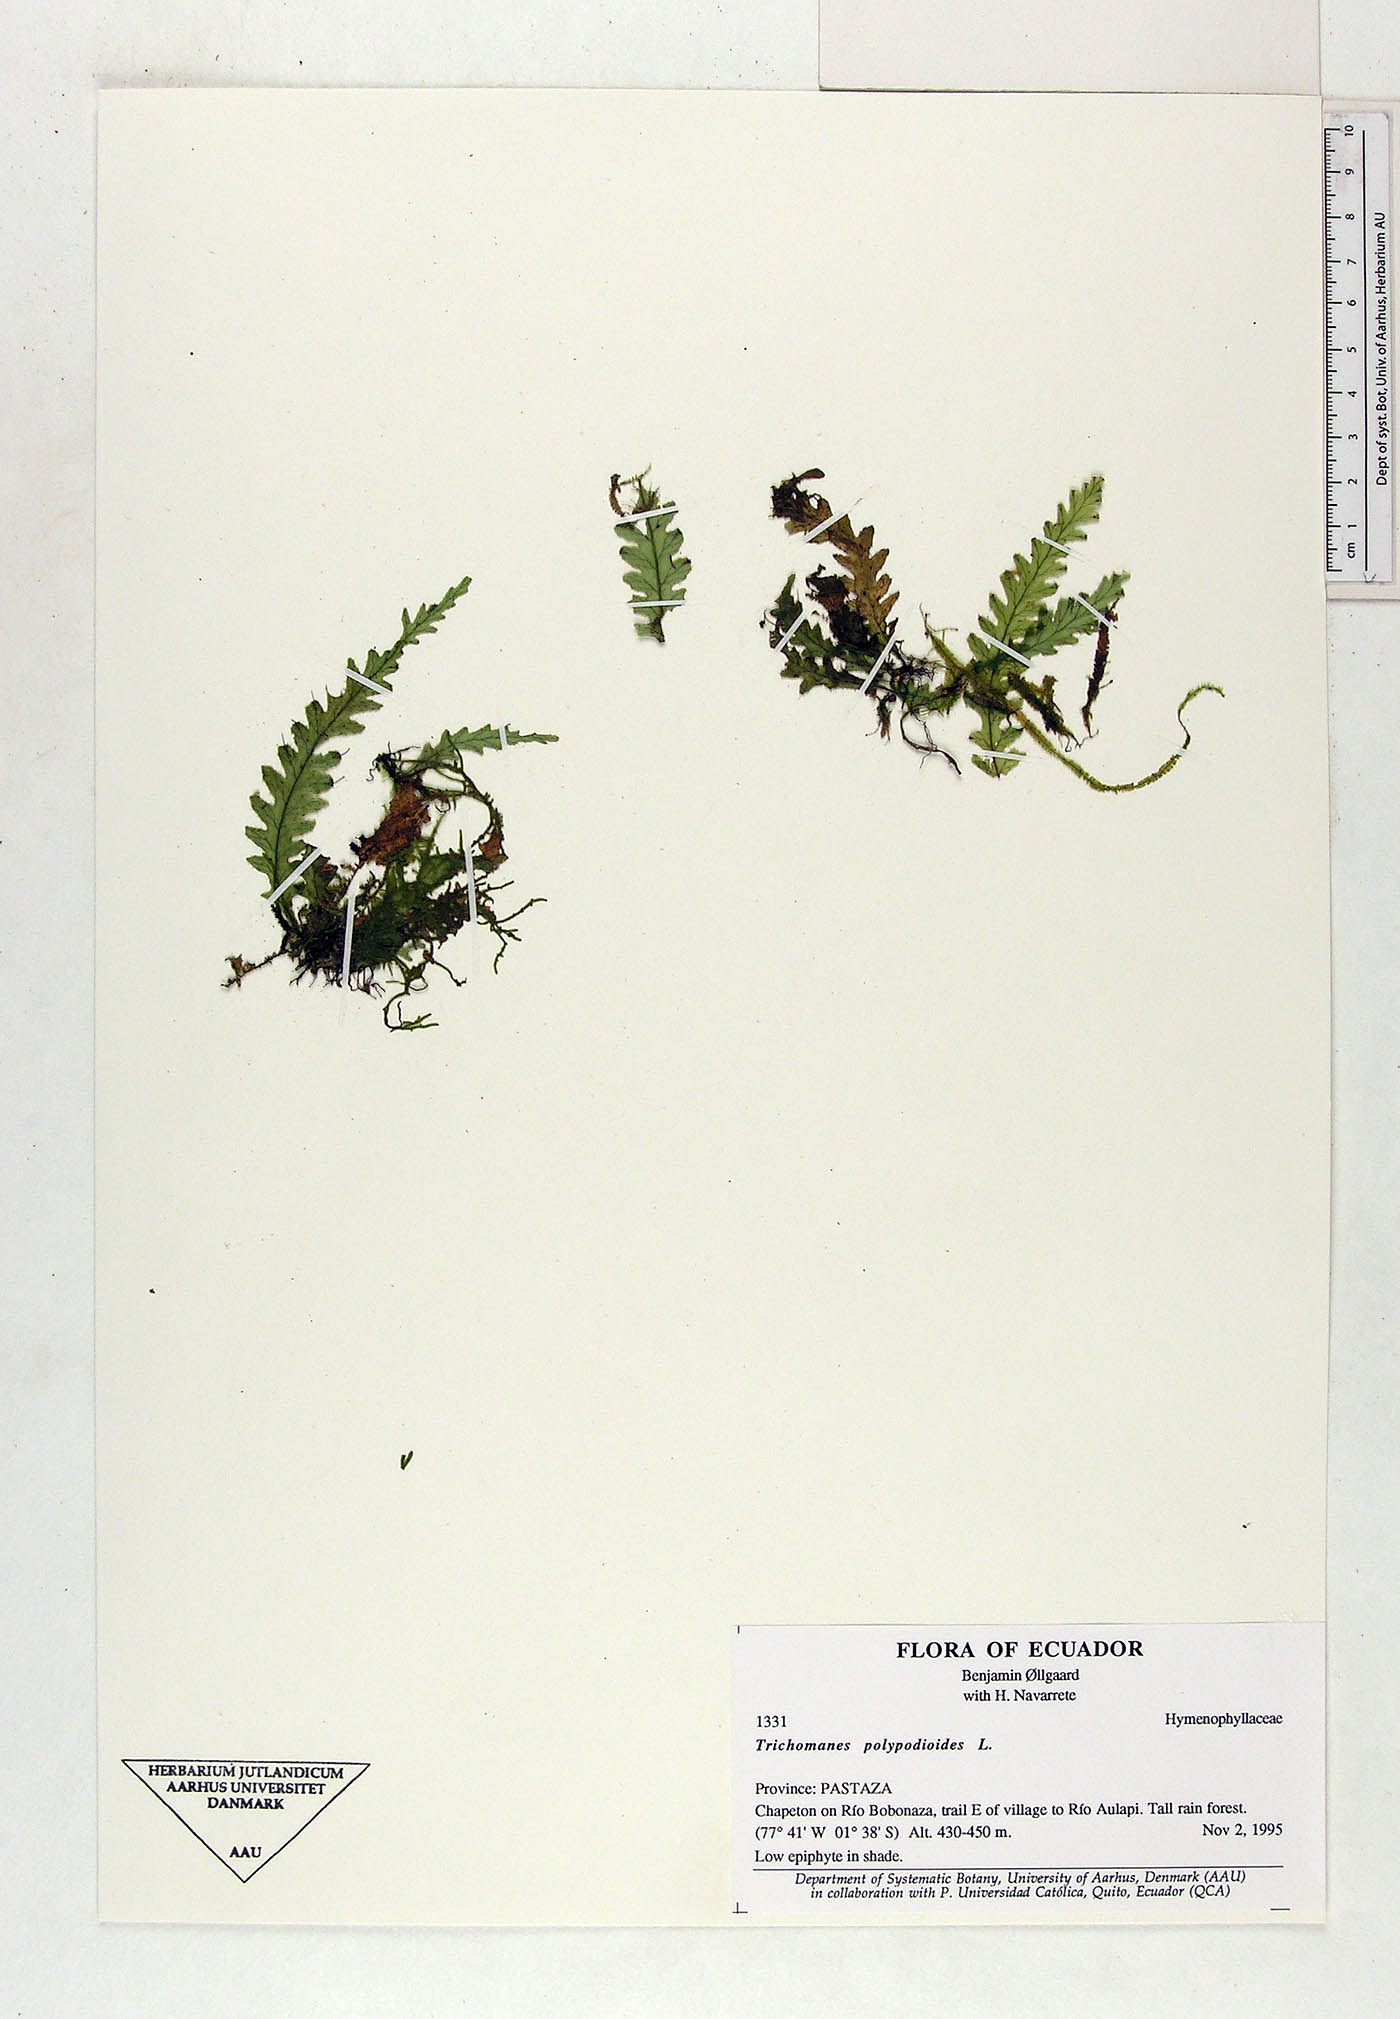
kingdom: Plantae
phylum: Tracheophyta
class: Polypodiopsida
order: Hymenophyllales
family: Hymenophyllaceae
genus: Trichomanes
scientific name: Trichomanes polypodioides
